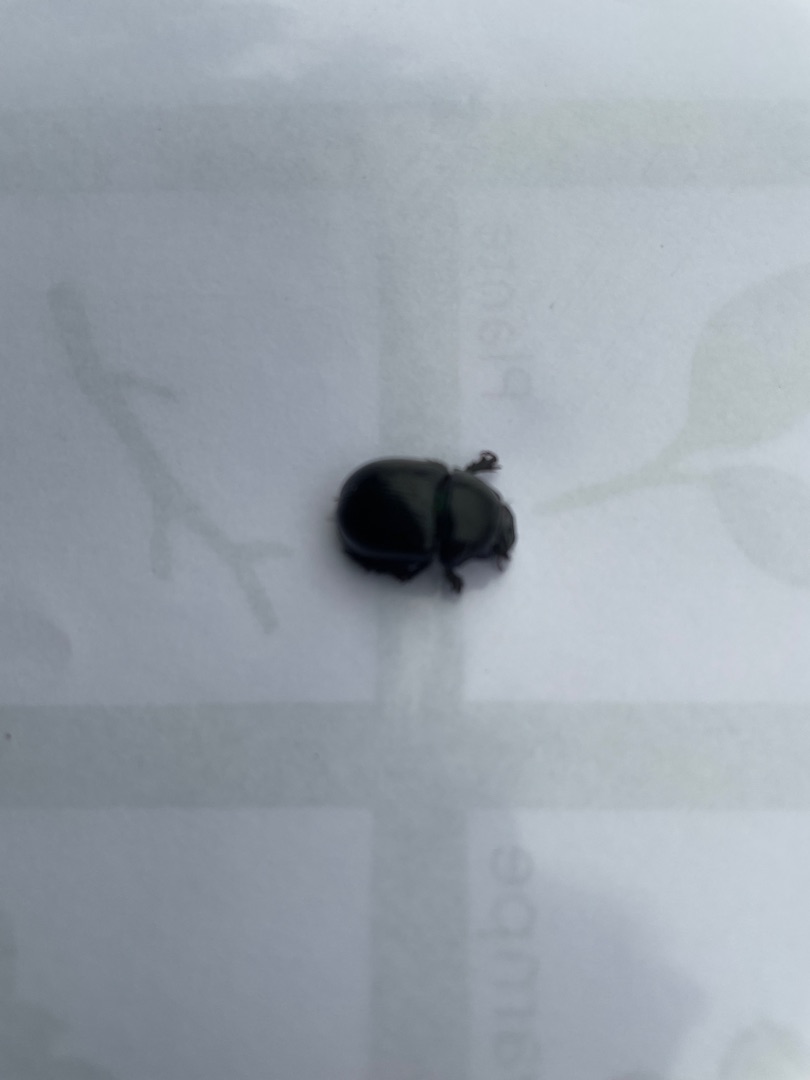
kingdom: Animalia
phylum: Arthropoda
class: Insecta
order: Coleoptera
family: Geotrupidae
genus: Anoplotrupes
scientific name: Anoplotrupes stercorosus
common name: Skovskarnbasse
